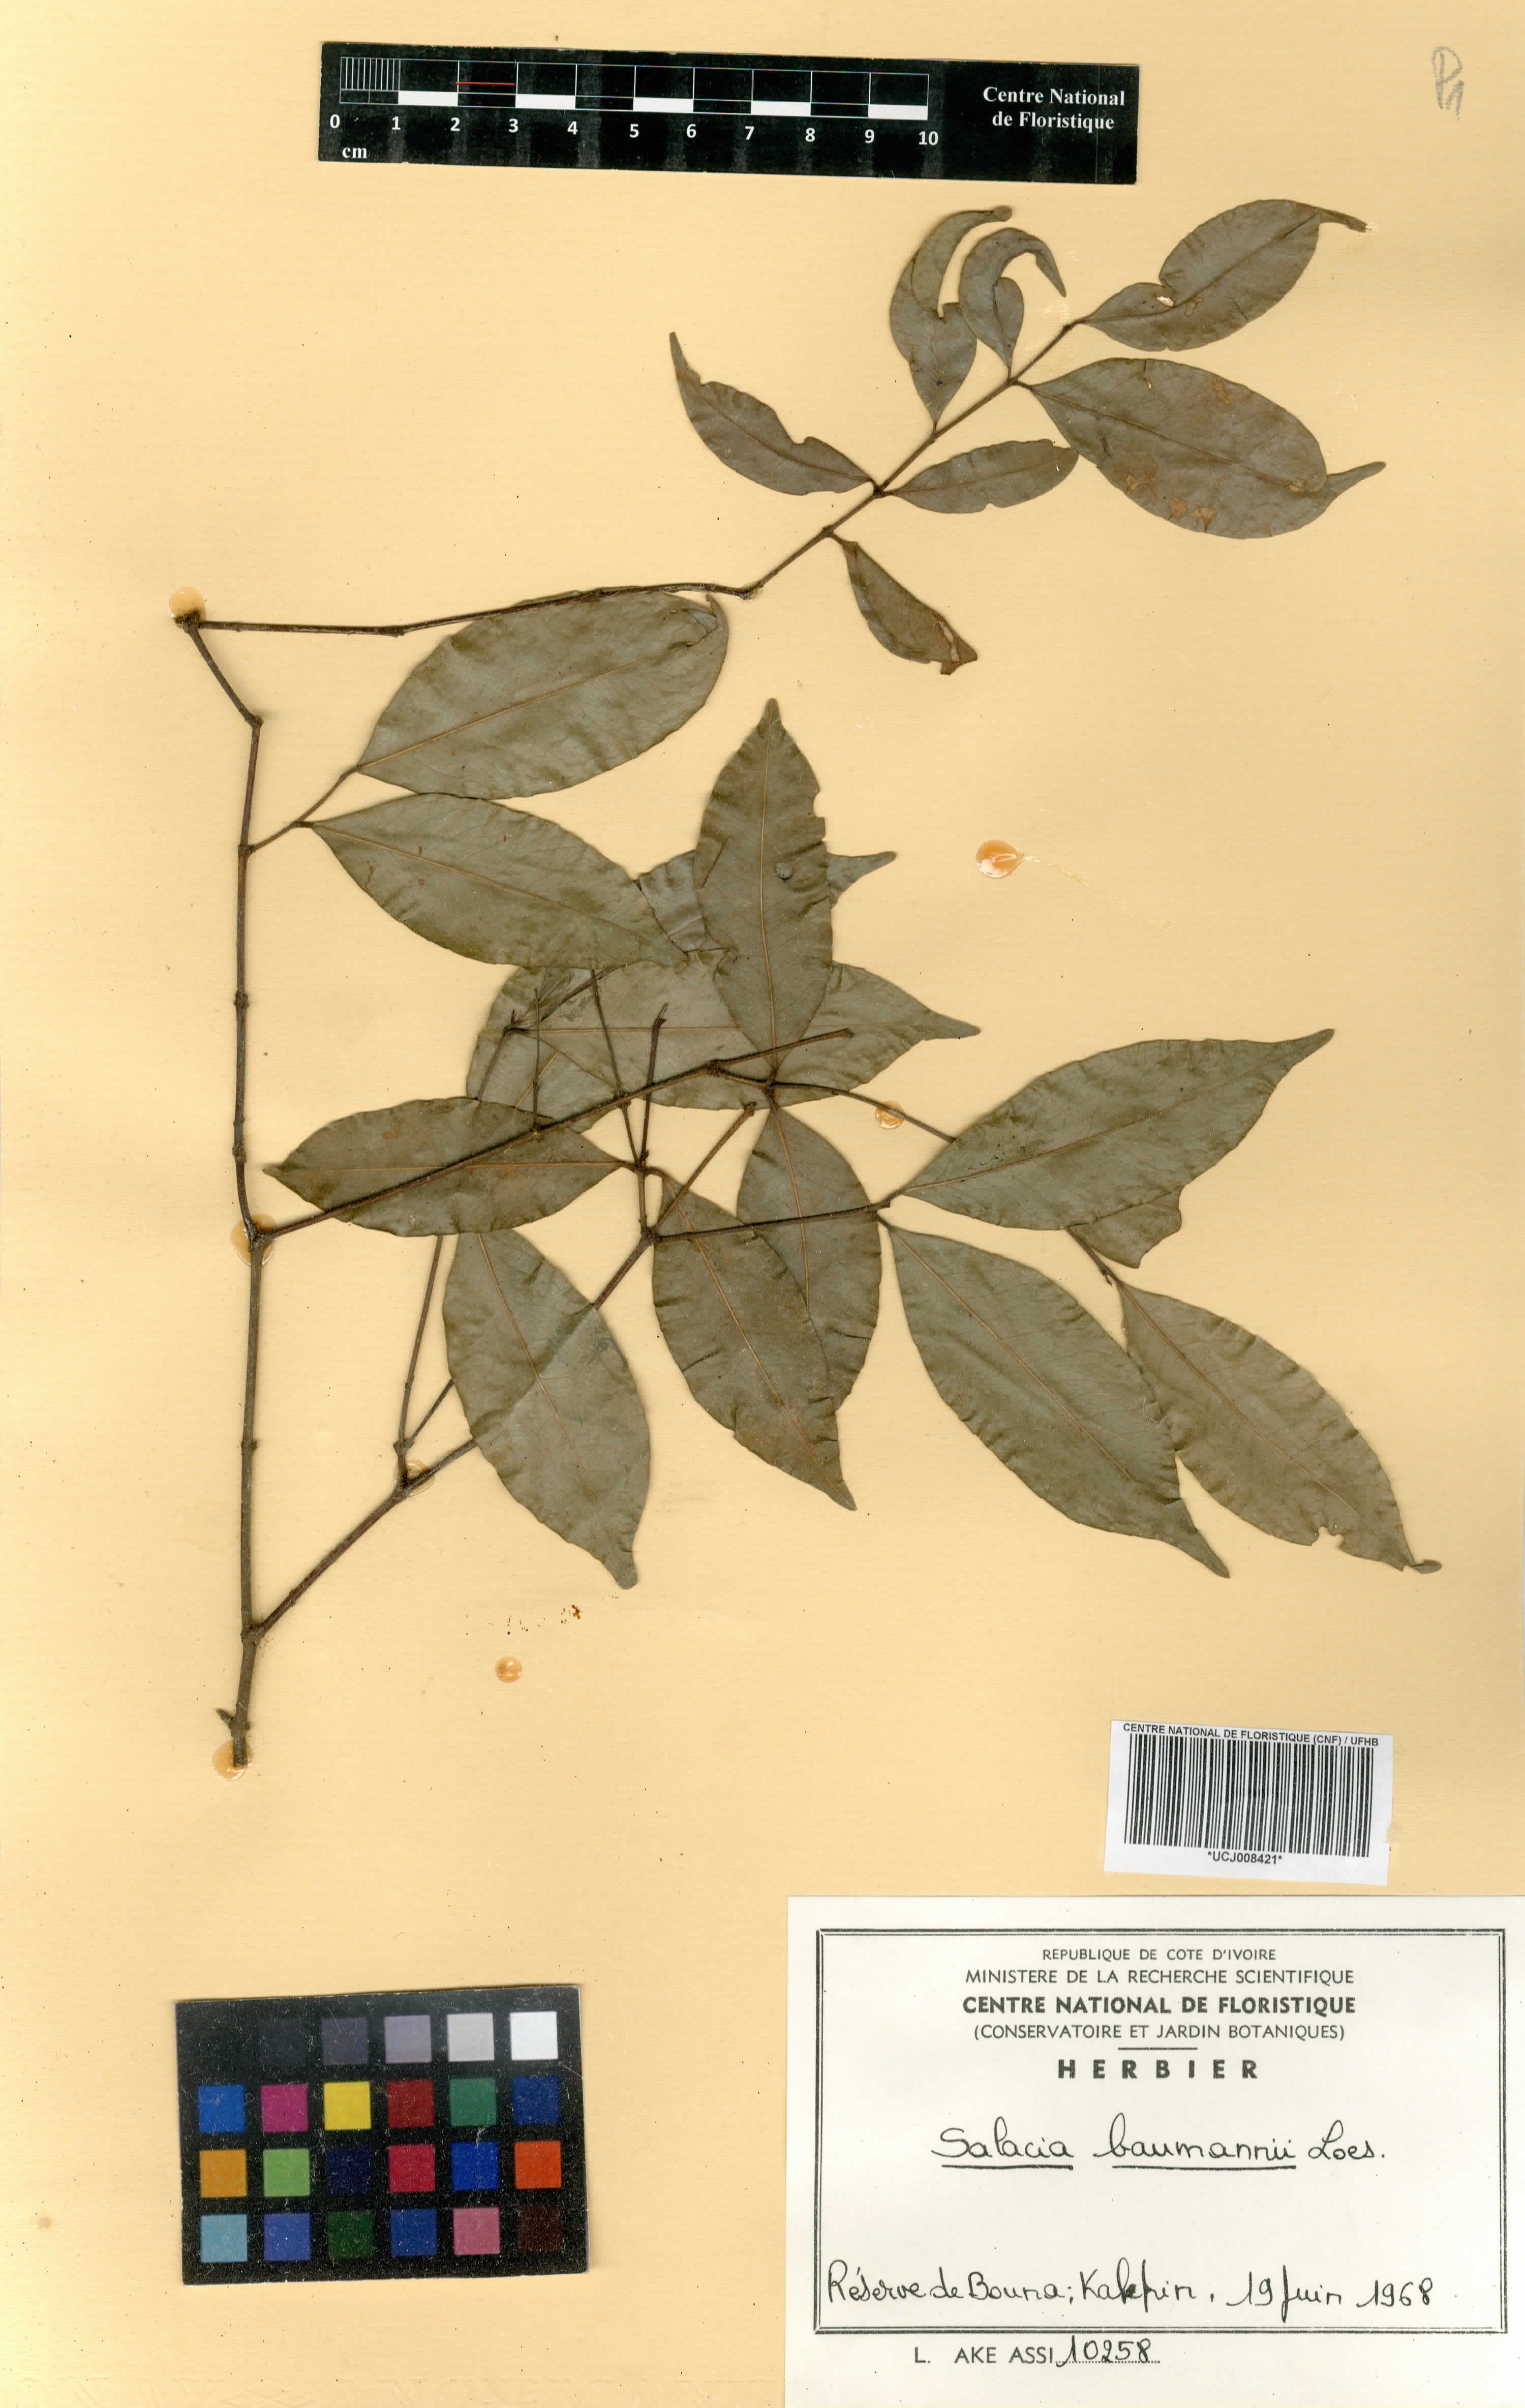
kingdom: Plantae
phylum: Tracheophyta
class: Magnoliopsida
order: Celastrales
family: Celastraceae
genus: Salacia
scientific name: Salacia leptoclada
